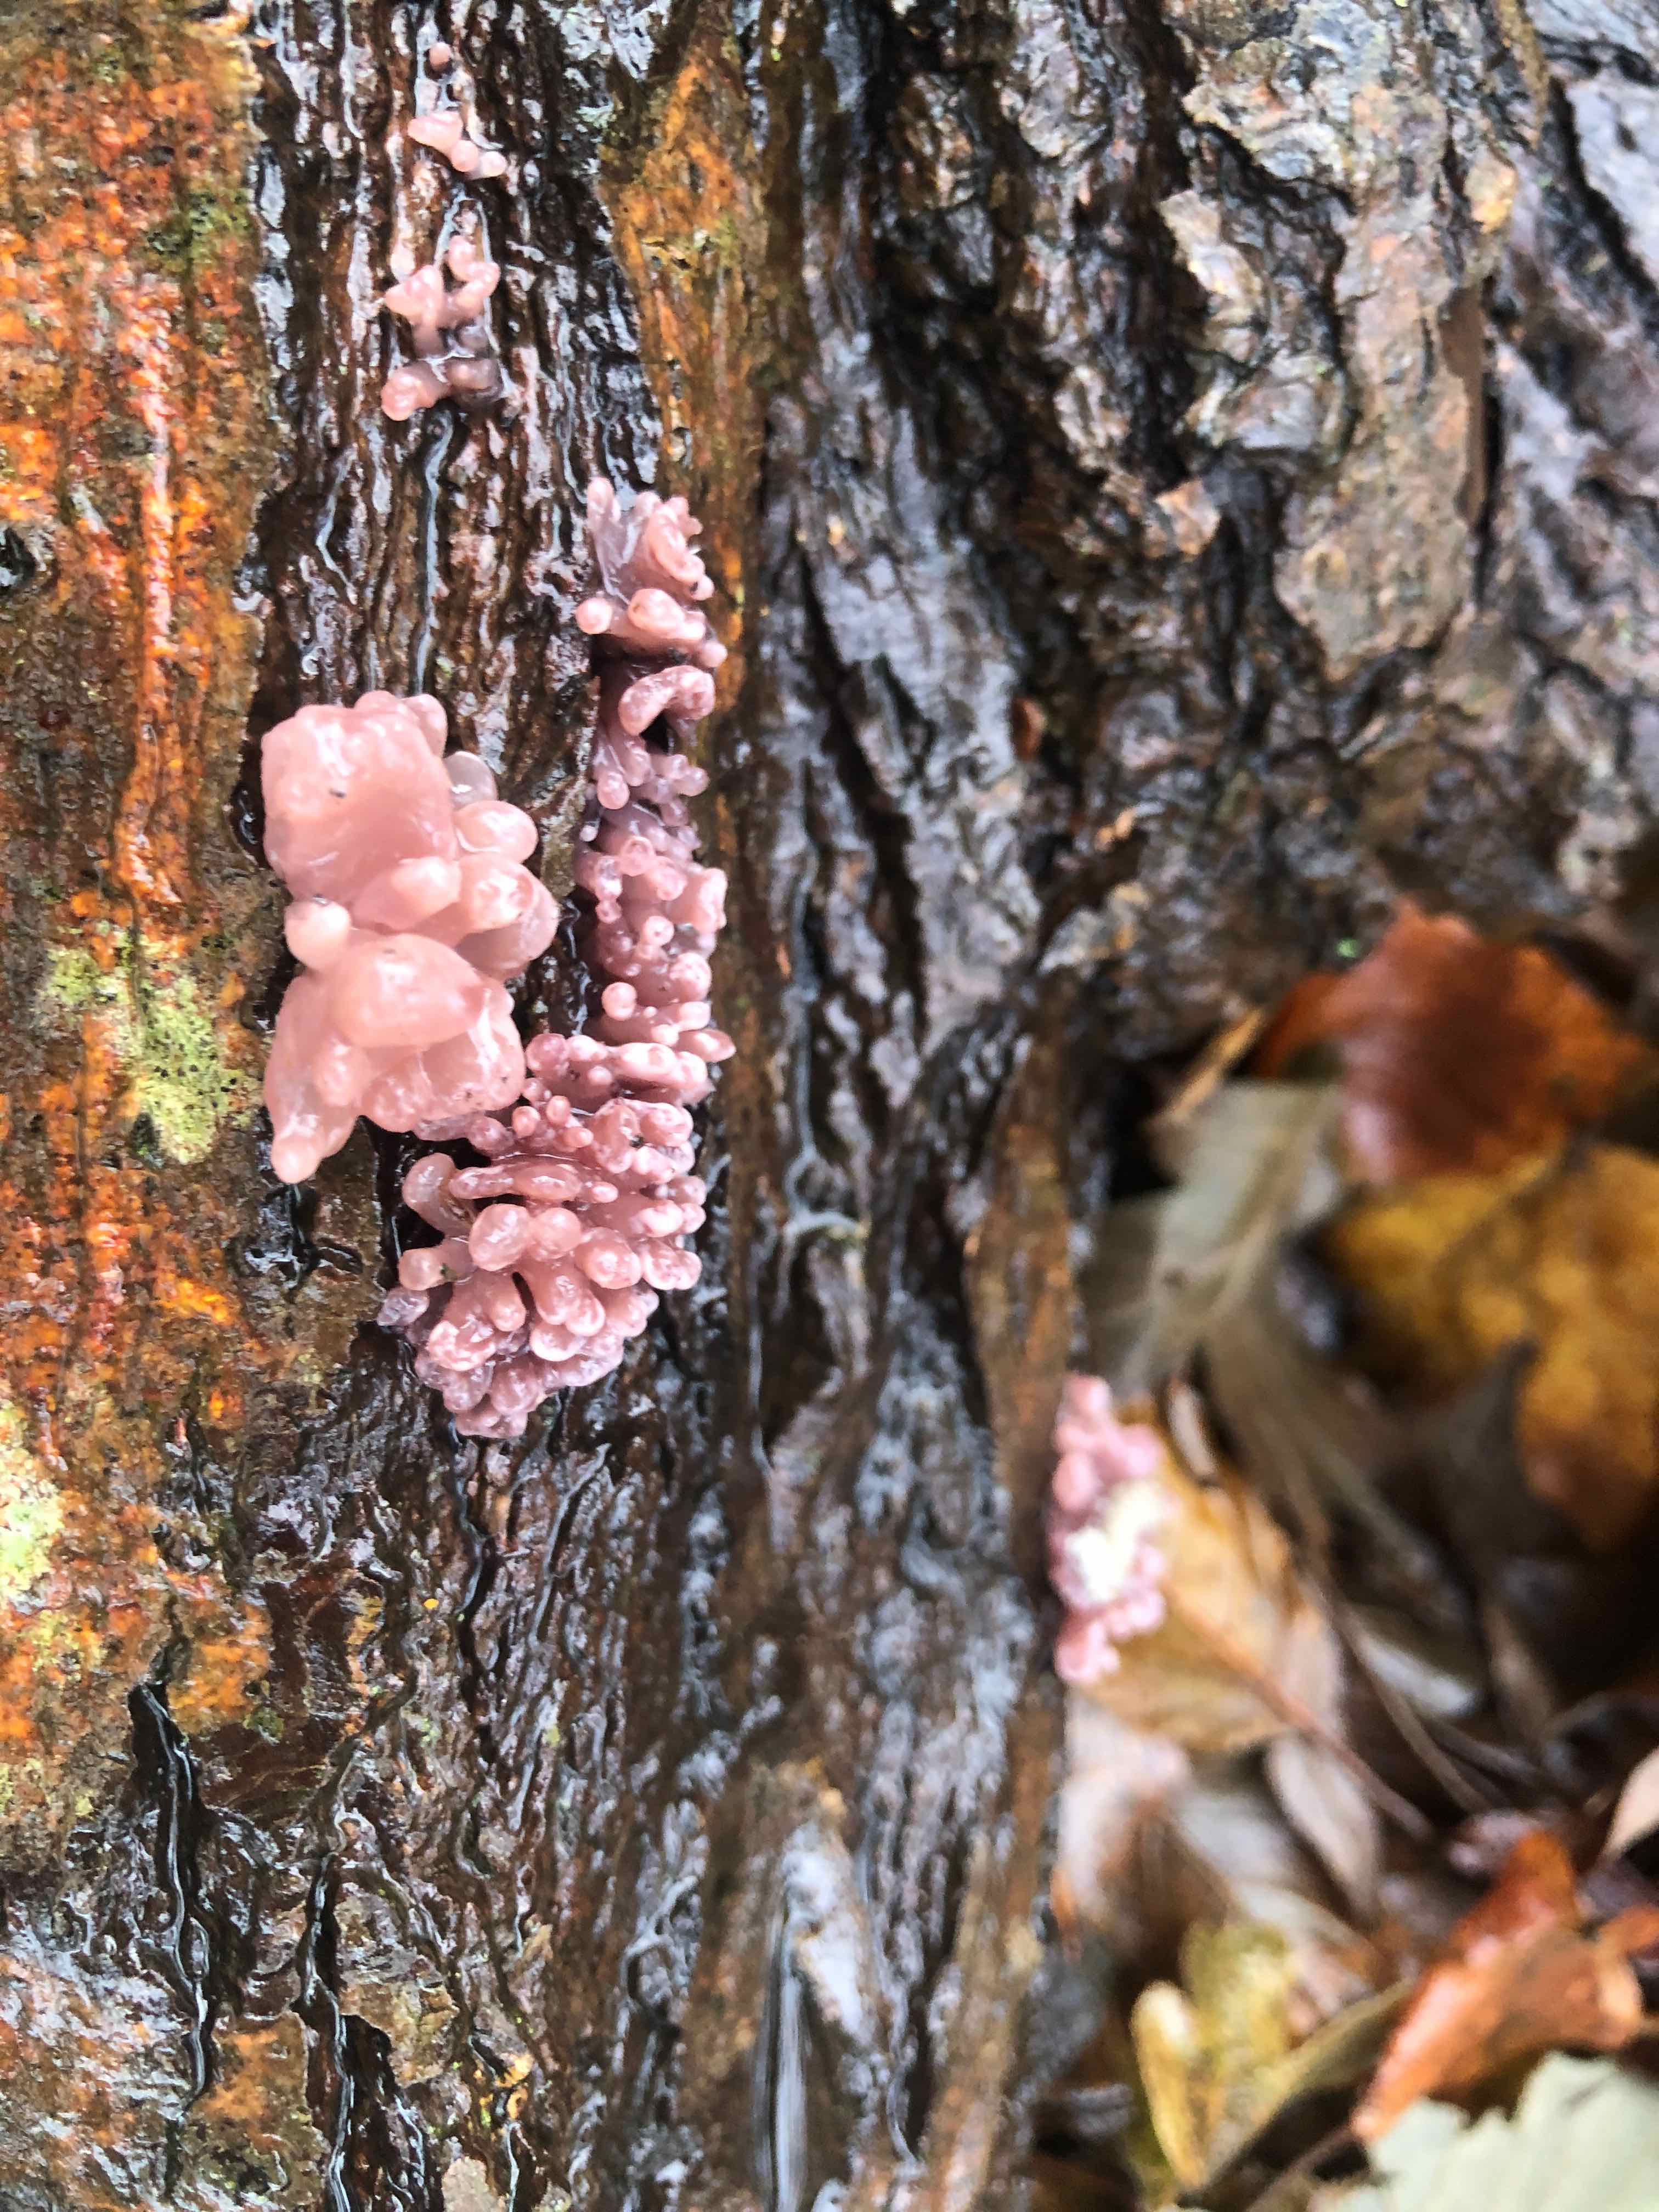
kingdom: Fungi
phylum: Ascomycota
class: Leotiomycetes
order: Helotiales
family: Gelatinodiscaceae
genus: Ascocoryne
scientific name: Ascocoryne sarcoides
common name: rødlilla sejskive
